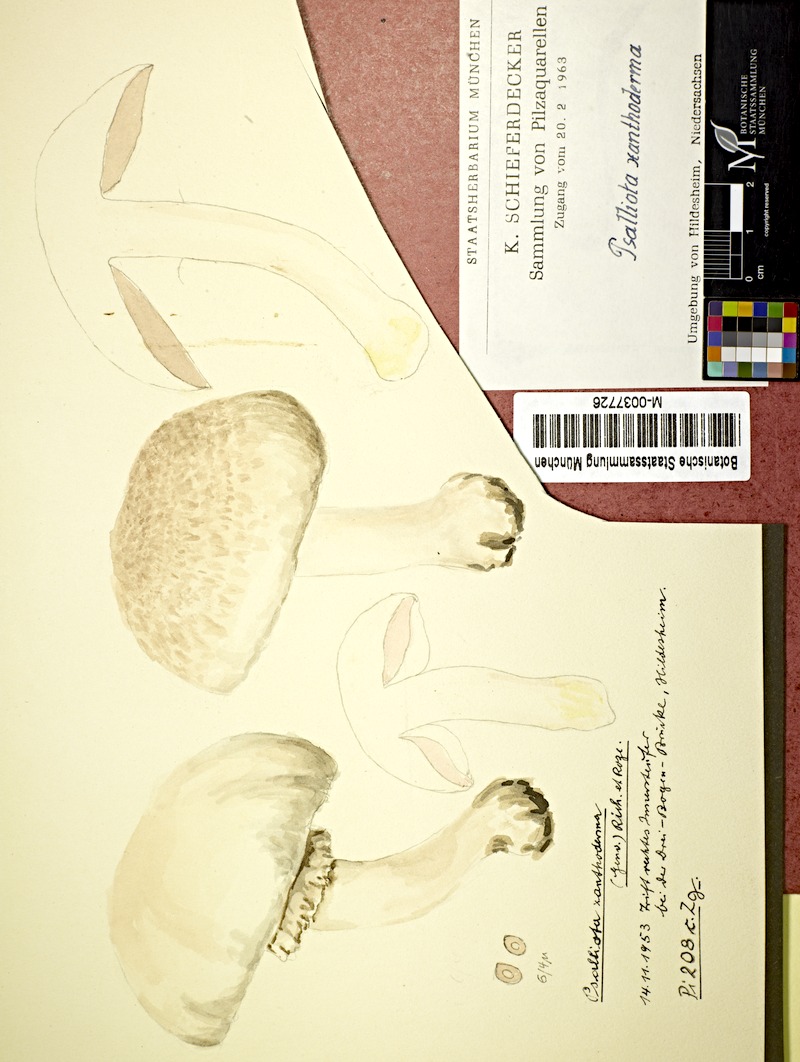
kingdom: Fungi
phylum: Basidiomycota
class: Agaricomycetes
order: Agaricales
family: Agaricaceae
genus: Agaricus
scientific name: Agaricus xanthodermus
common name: Yellow stainer
